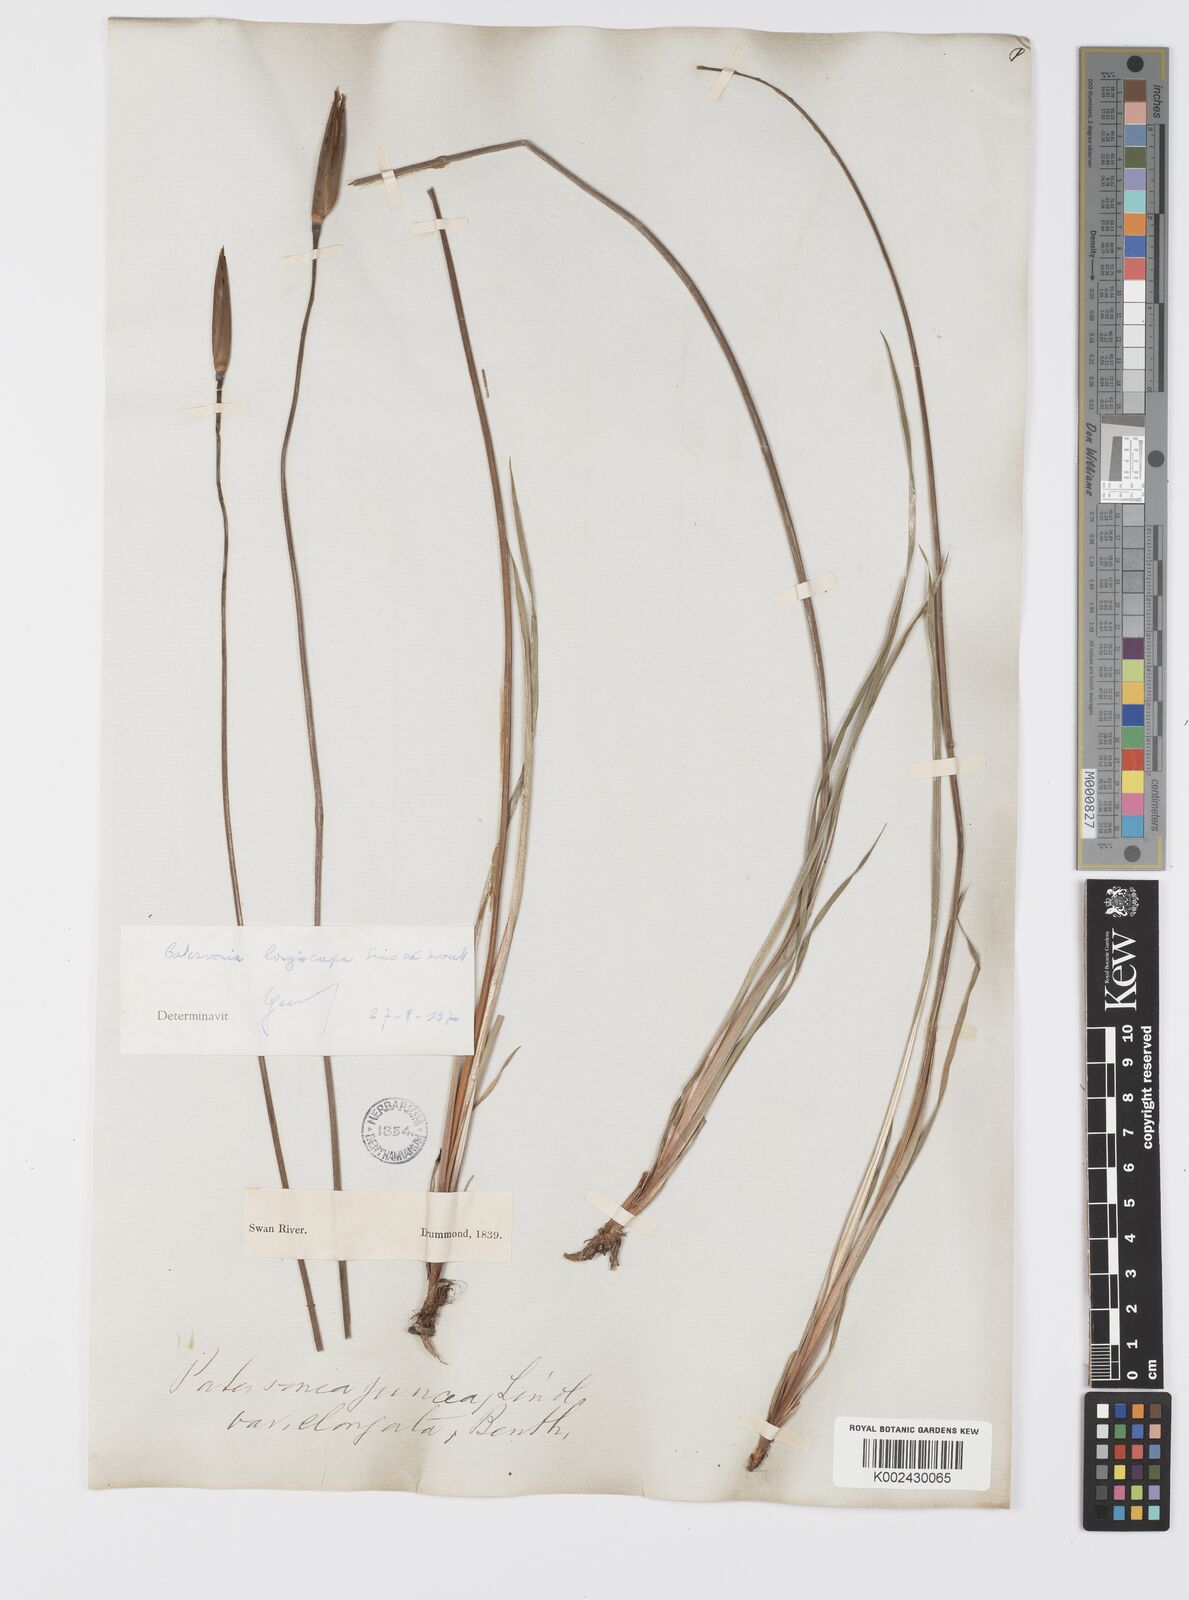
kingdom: Plantae
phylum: Tracheophyta
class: Liliopsida
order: Asparagales
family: Iridaceae
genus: Patersonia
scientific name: Patersonia juncea
